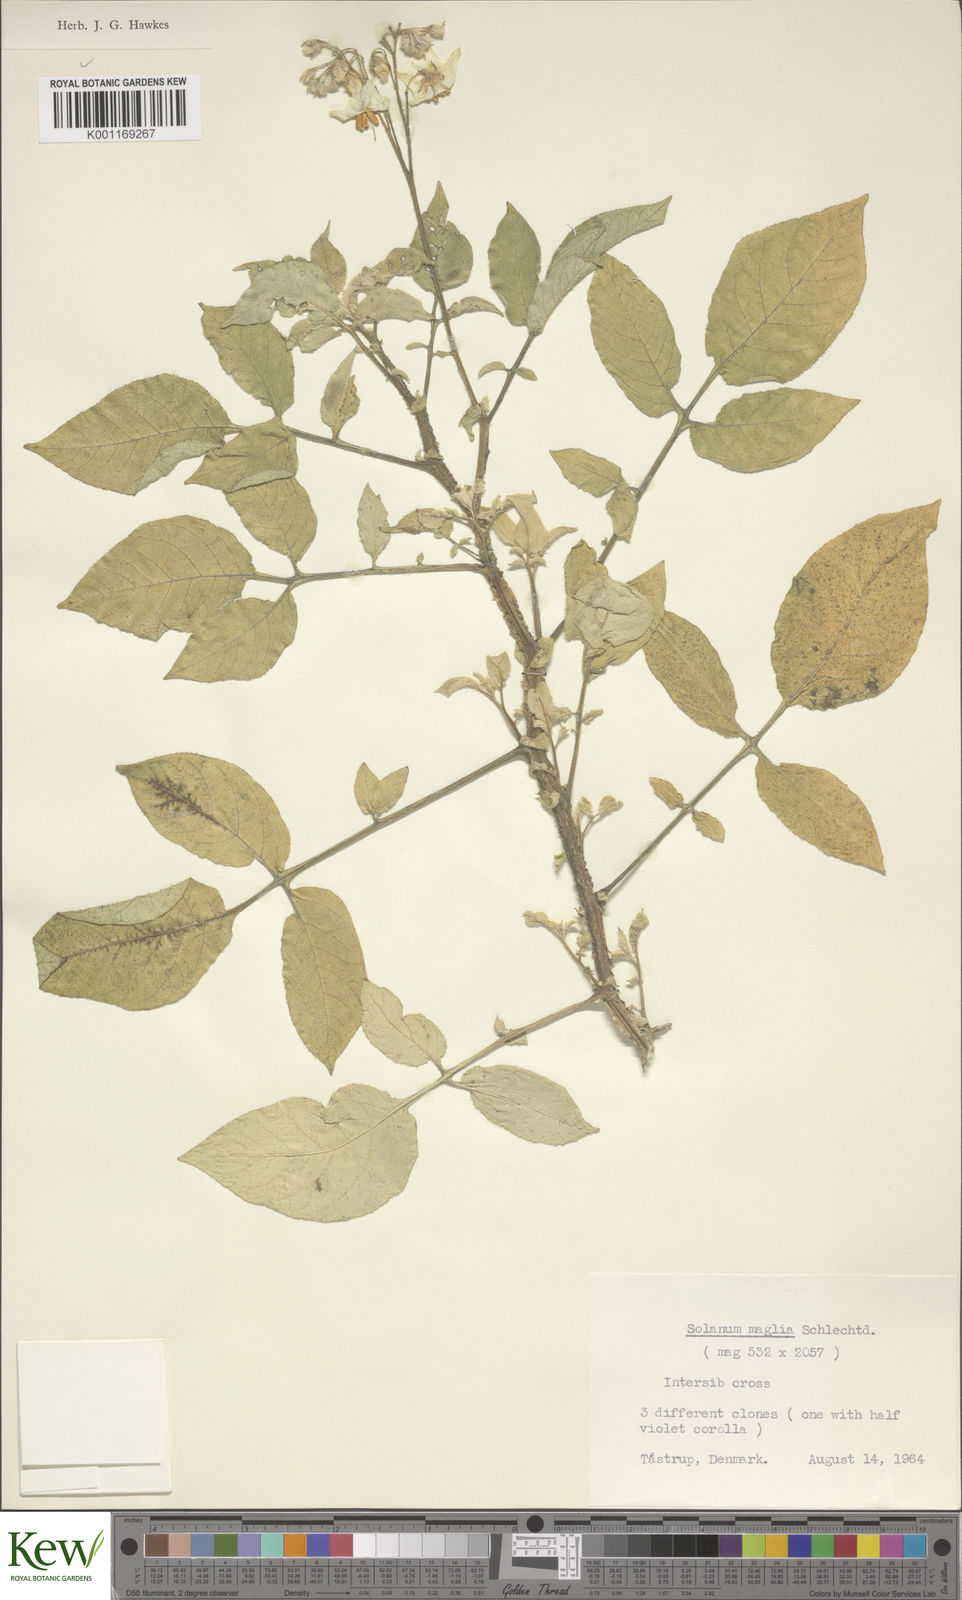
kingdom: Plantae
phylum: Tracheophyta
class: Magnoliopsida
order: Solanales
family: Solanaceae
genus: Solanum
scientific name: Solanum maglia
